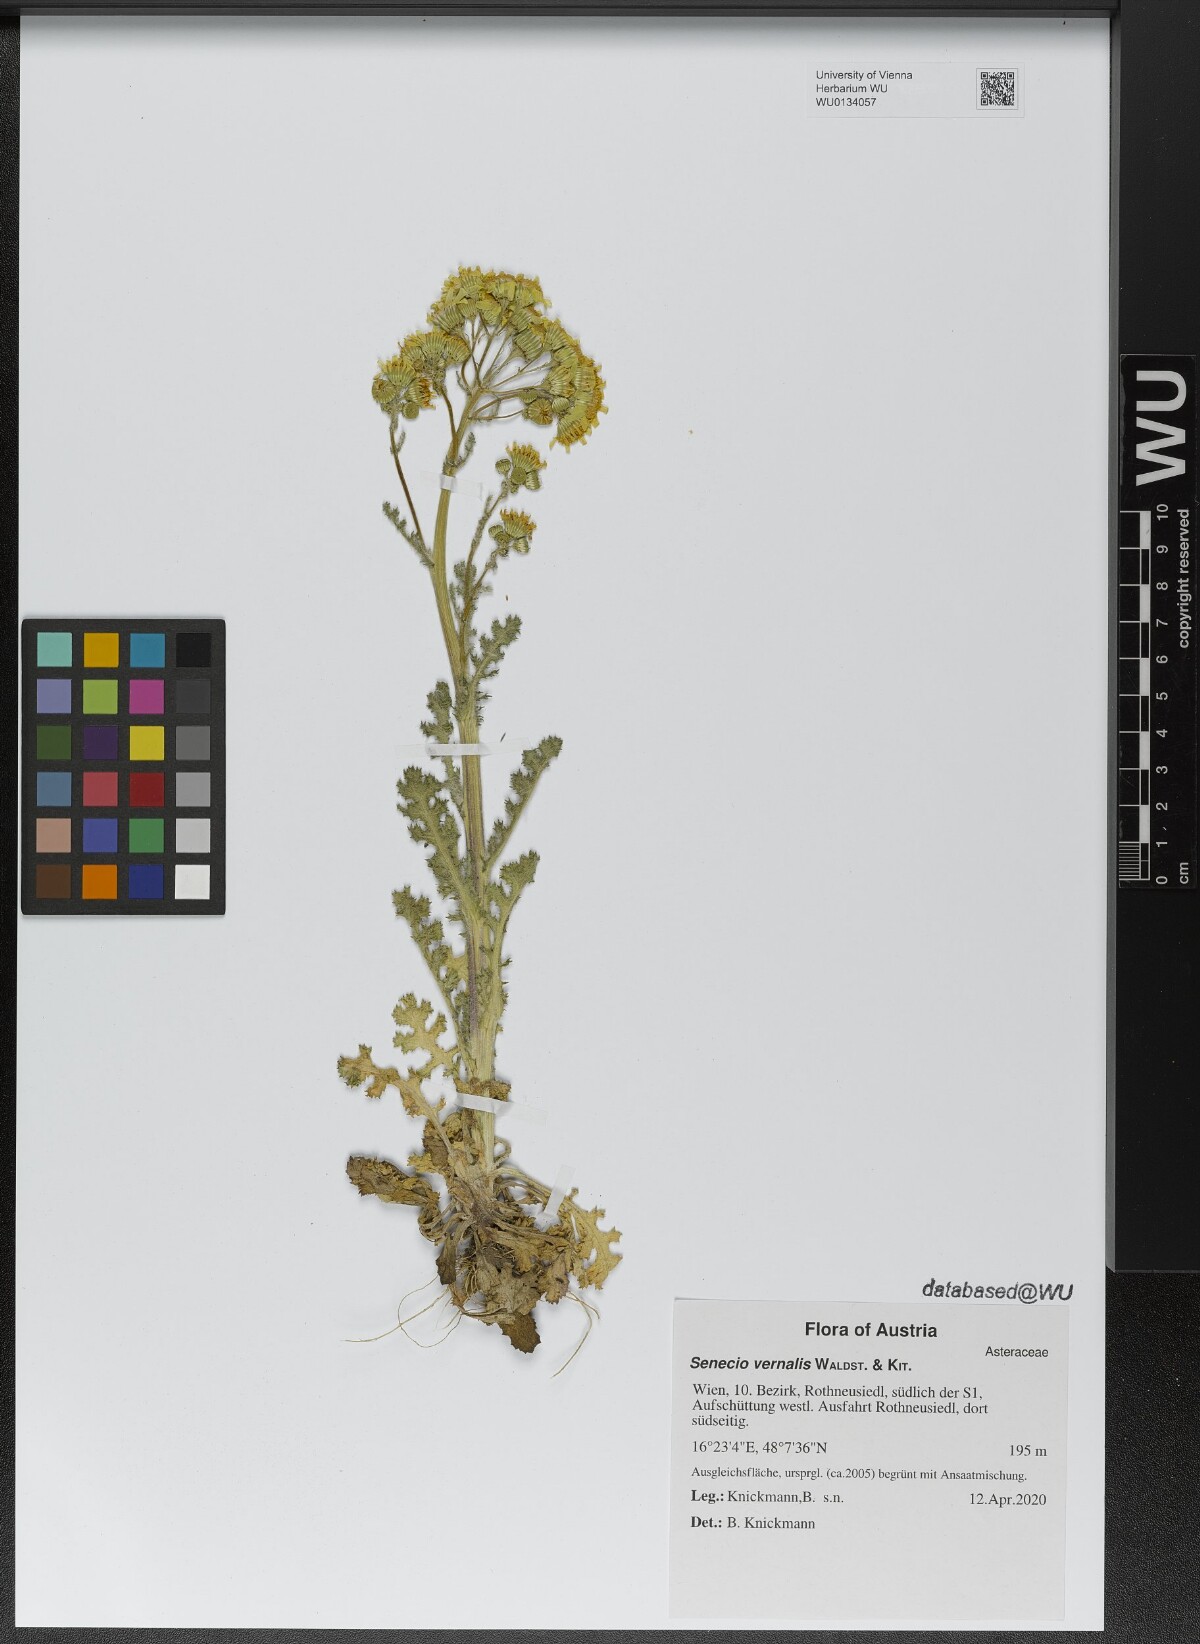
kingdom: Plantae
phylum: Tracheophyta
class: Magnoliopsida
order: Asterales
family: Asteraceae
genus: Senecio
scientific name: Senecio vernalis
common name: Eastern groundsel
